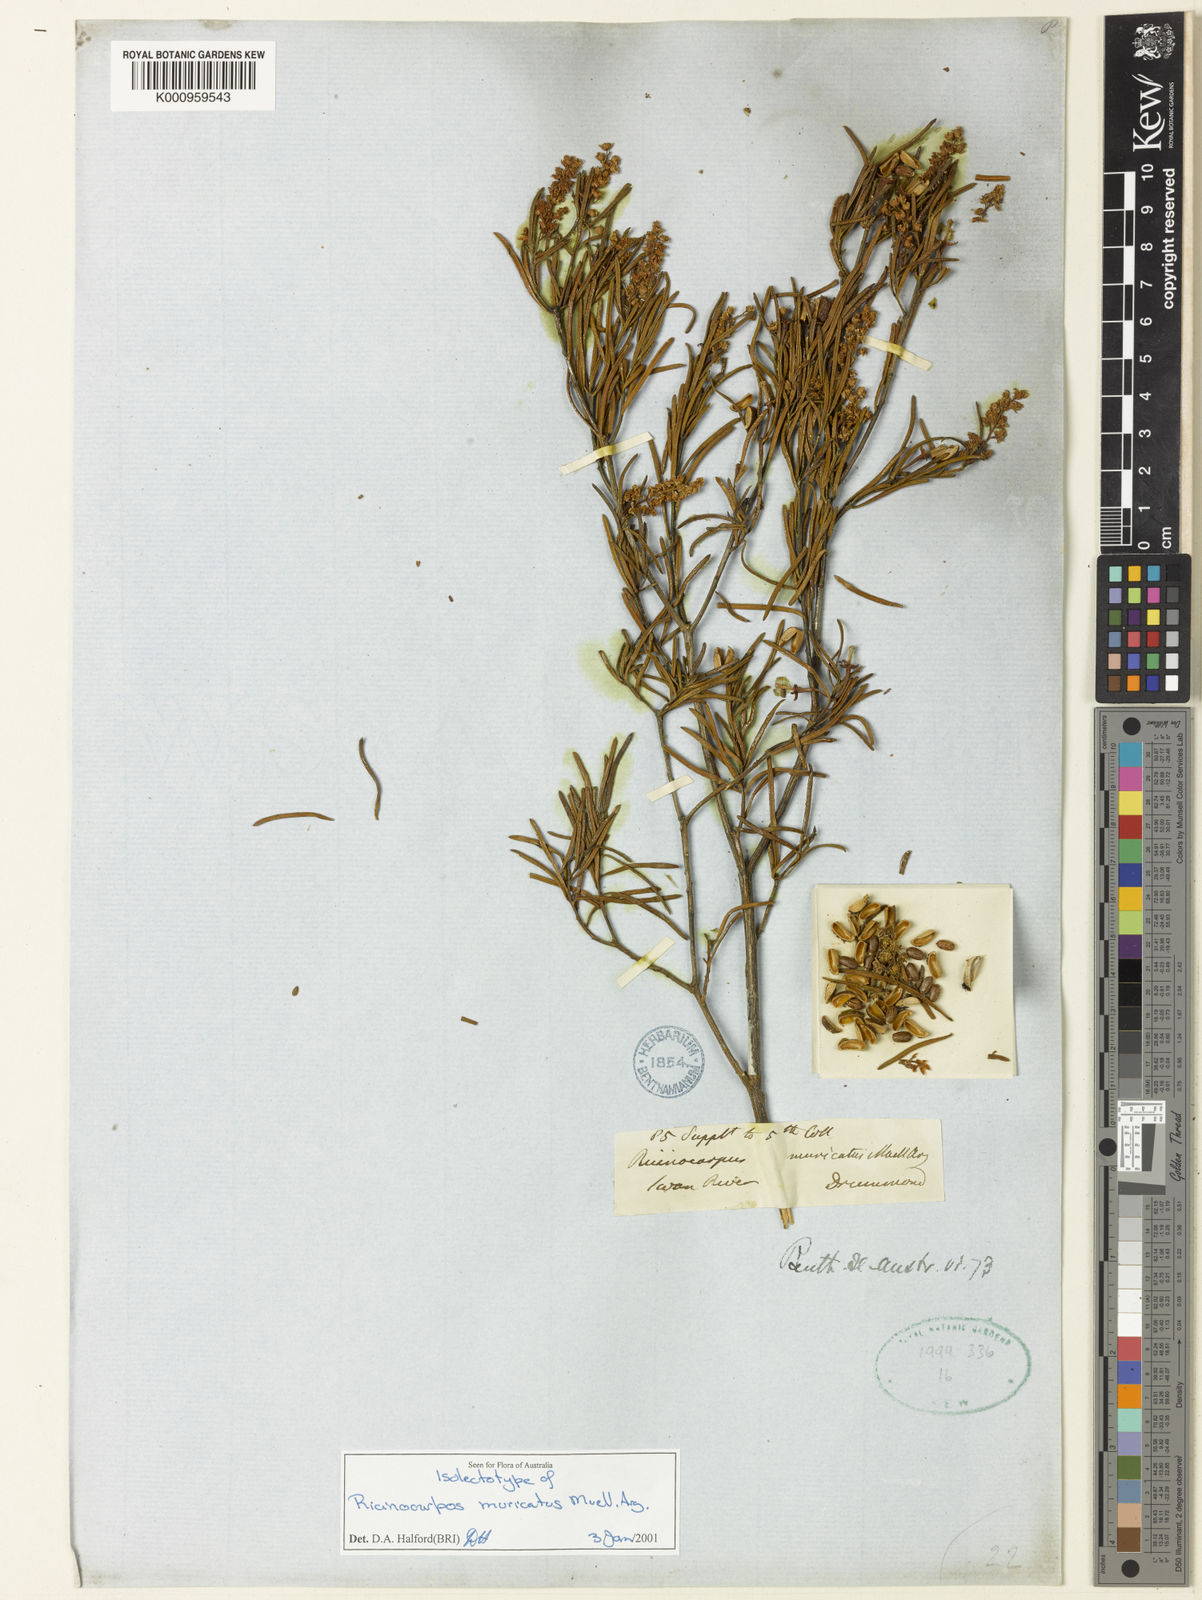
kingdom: Plantae
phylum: Tracheophyta
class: Magnoliopsida
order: Malpighiales
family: Euphorbiaceae
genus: Ricinocarpos
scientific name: Ricinocarpos
